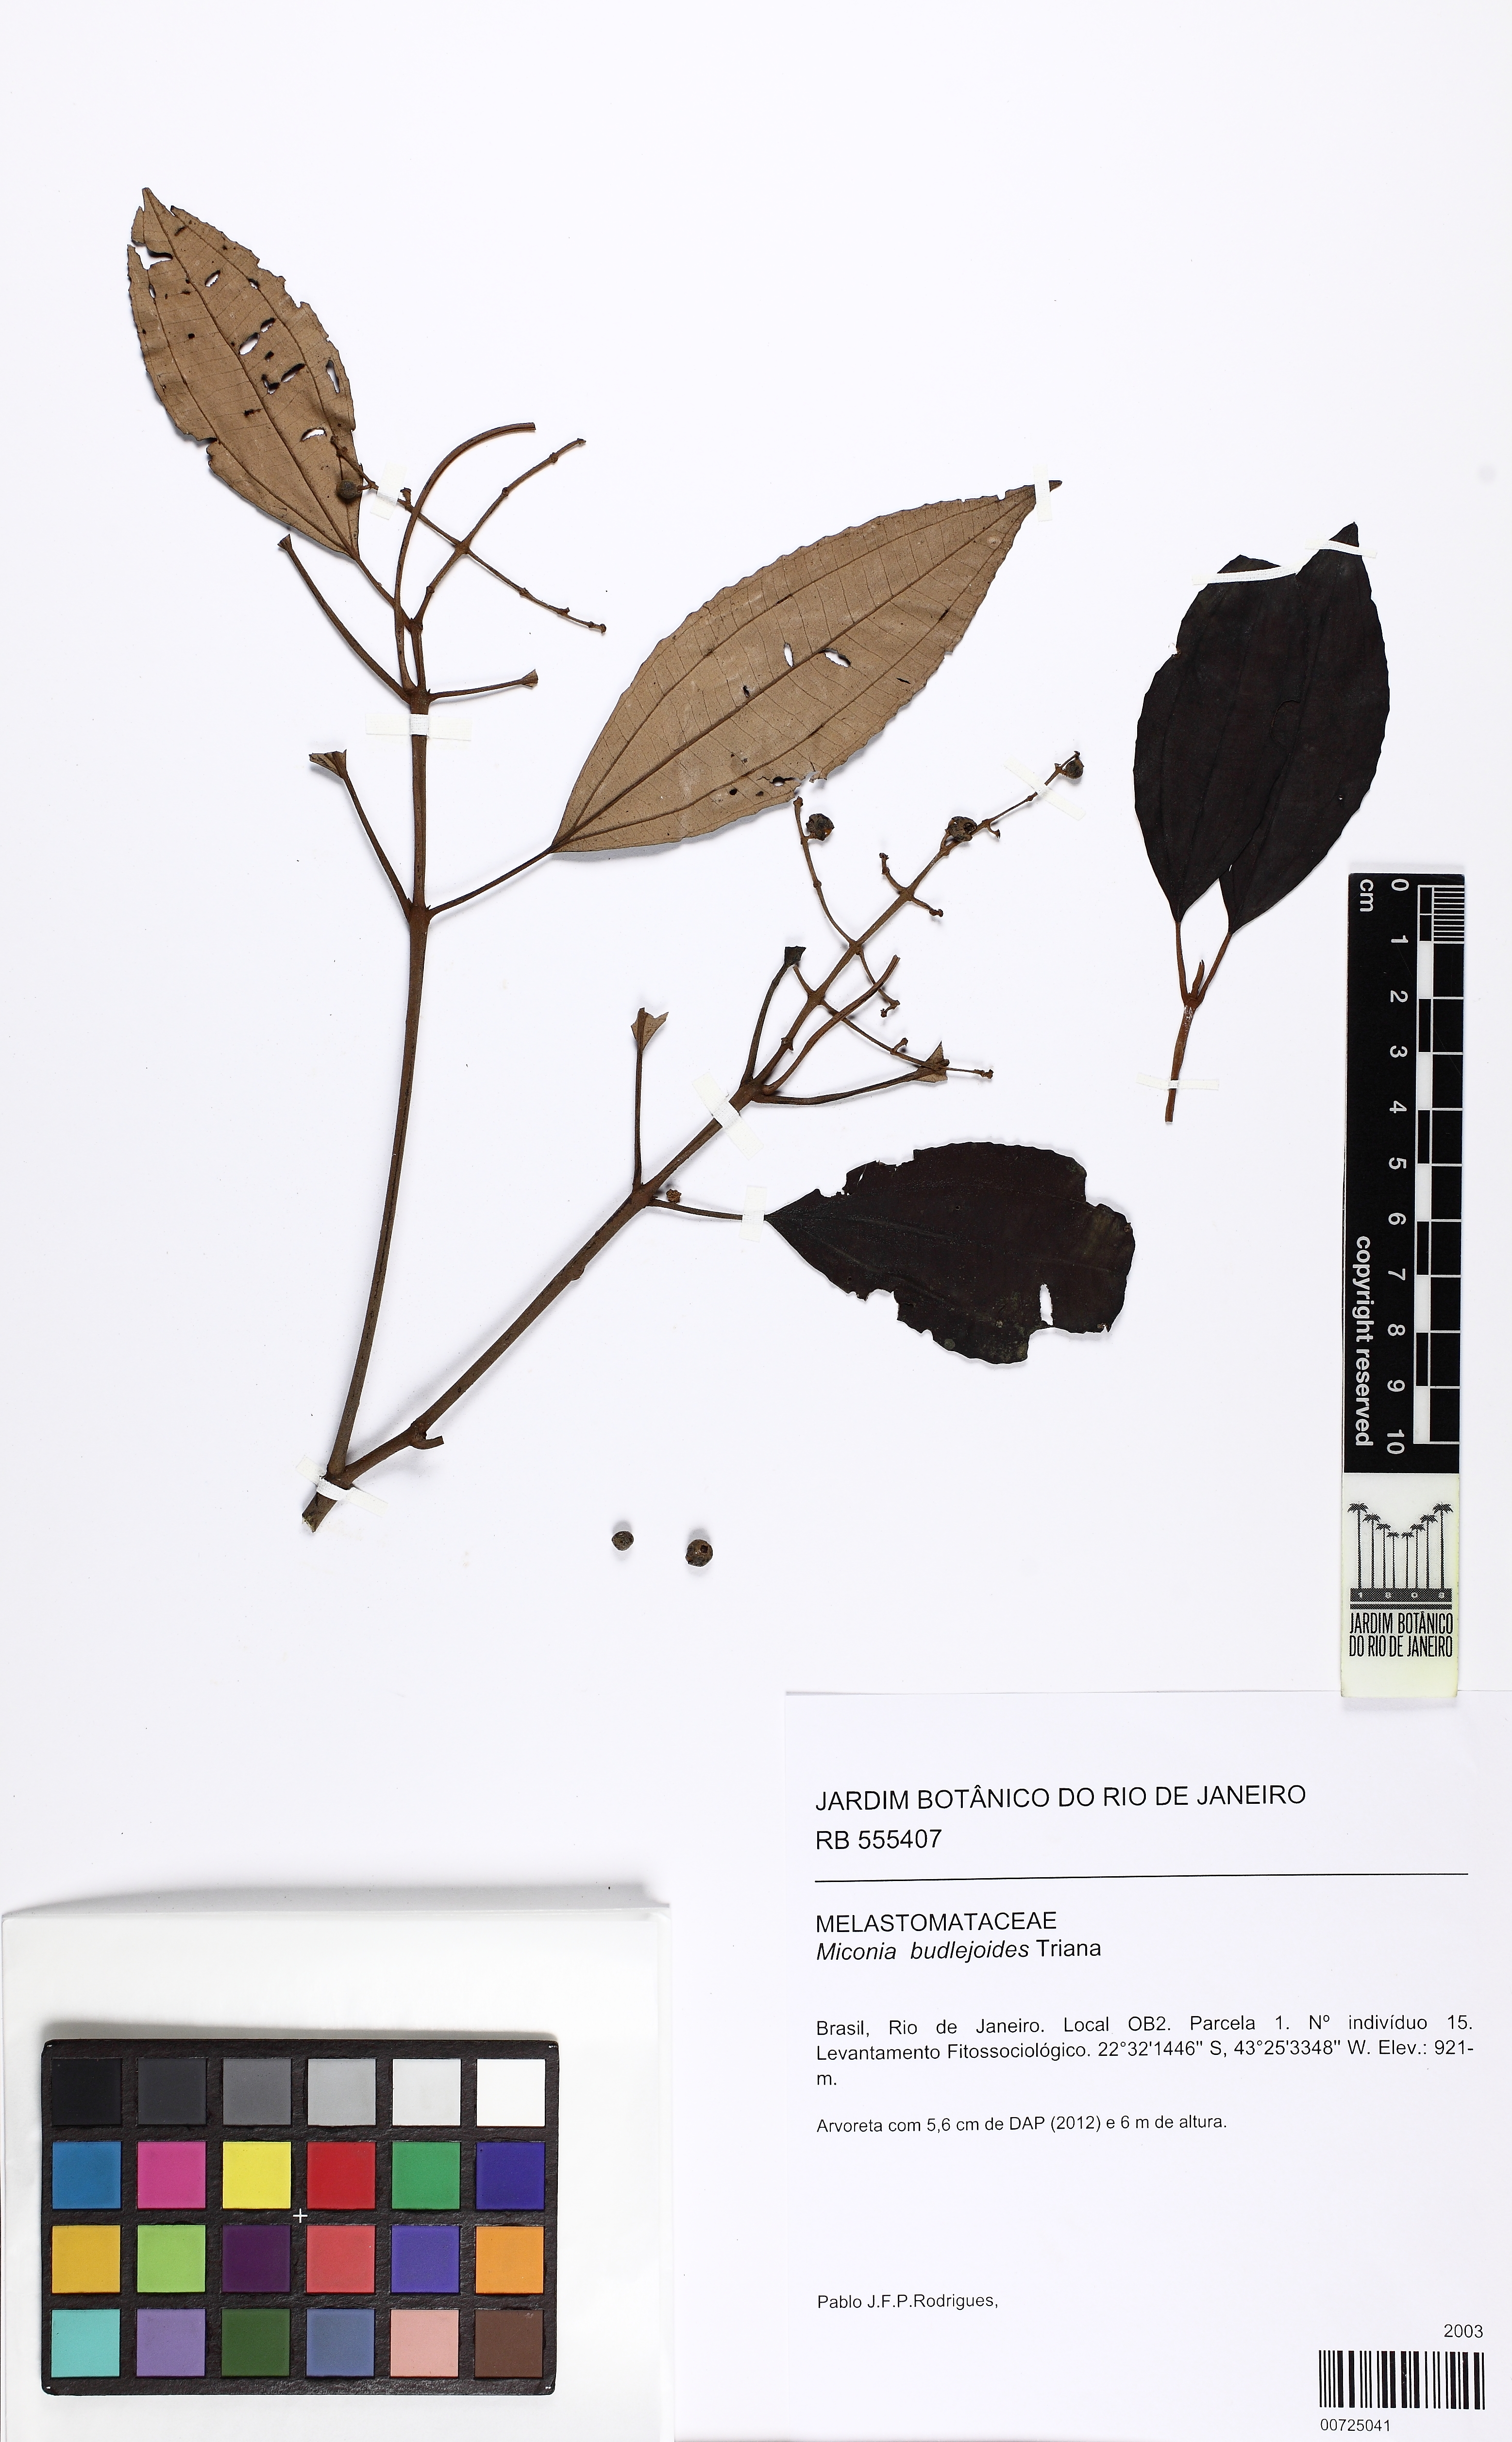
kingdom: Plantae
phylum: Tracheophyta
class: Magnoliopsida
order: Myrtales
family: Melastomataceae
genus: Miconia
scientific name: Miconia buddlejoides
